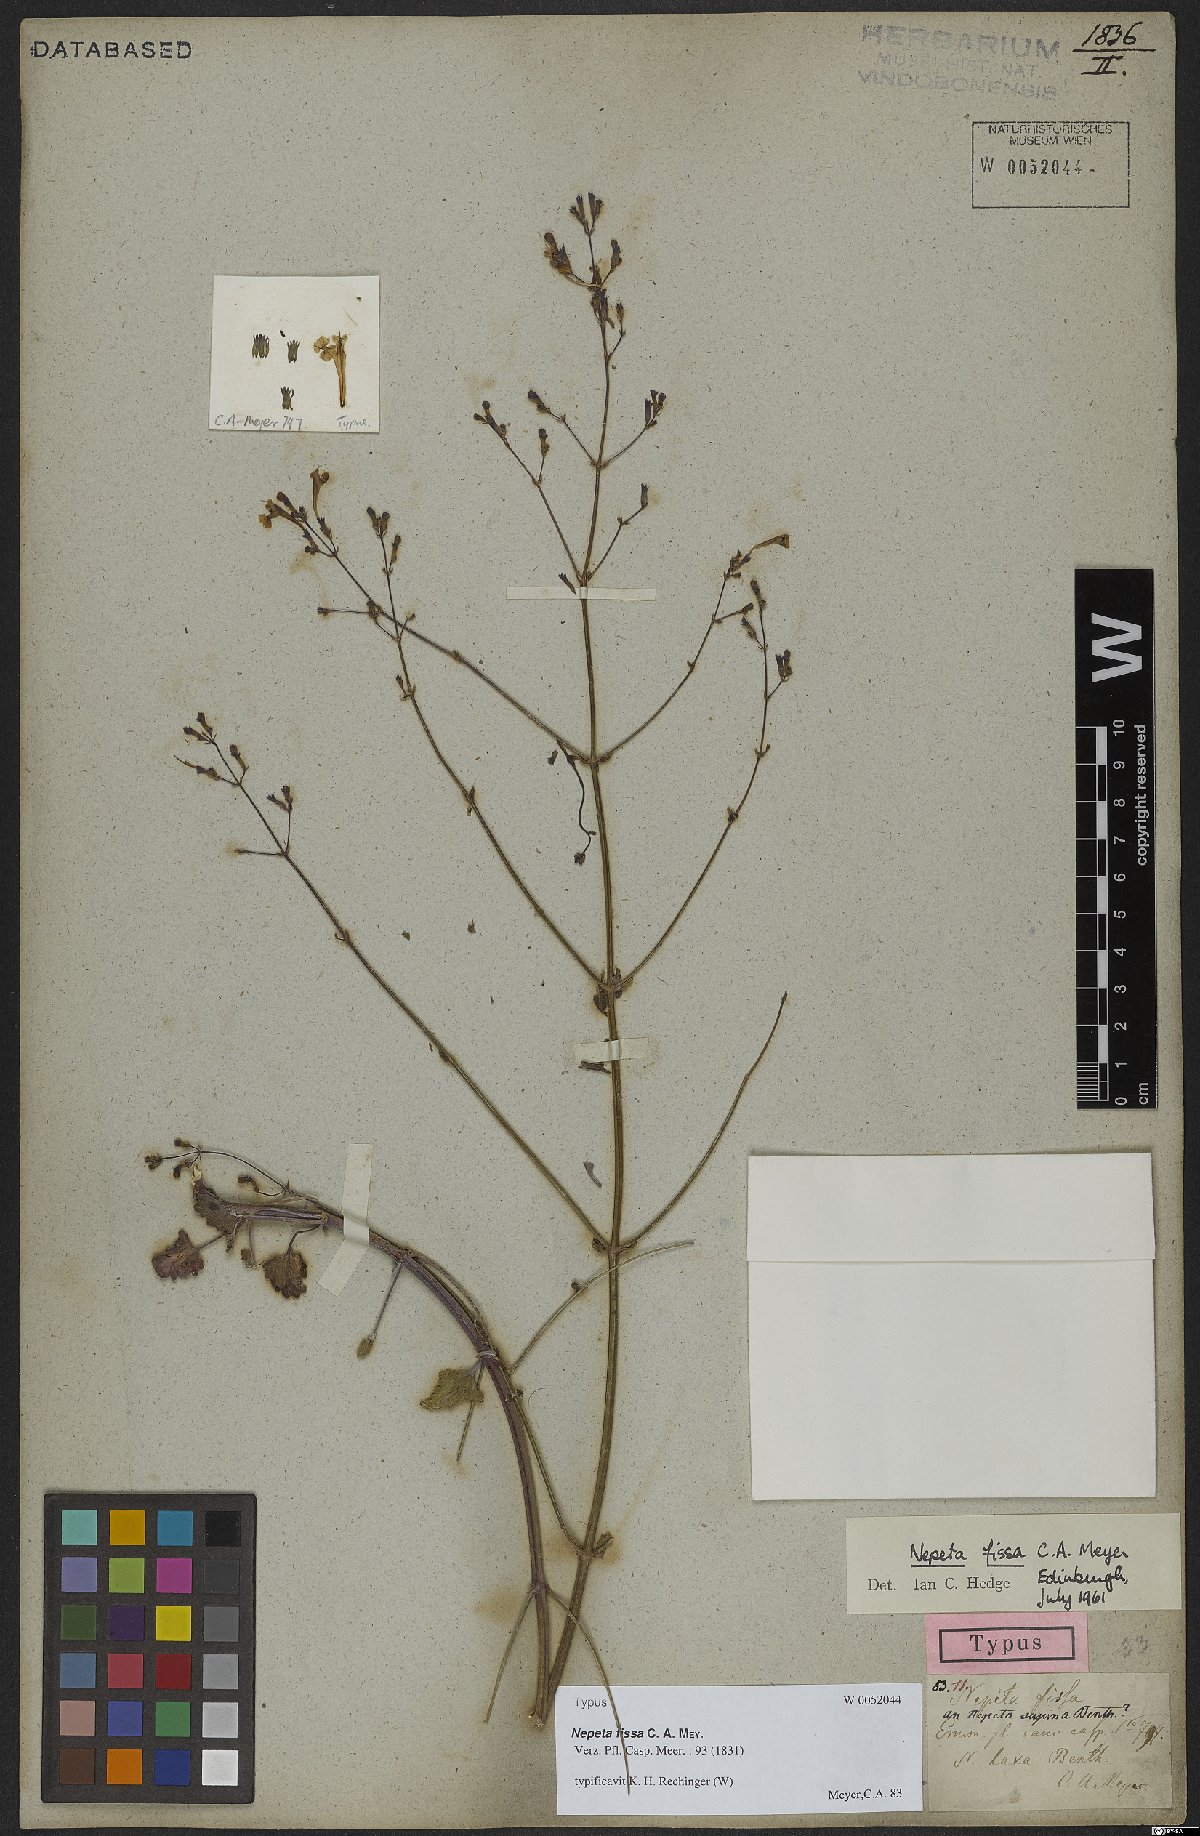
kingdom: Plantae
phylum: Tracheophyta
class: Magnoliopsida
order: Lamiales
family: Lamiaceae
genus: Nepeta
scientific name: Nepeta teucriifolia
